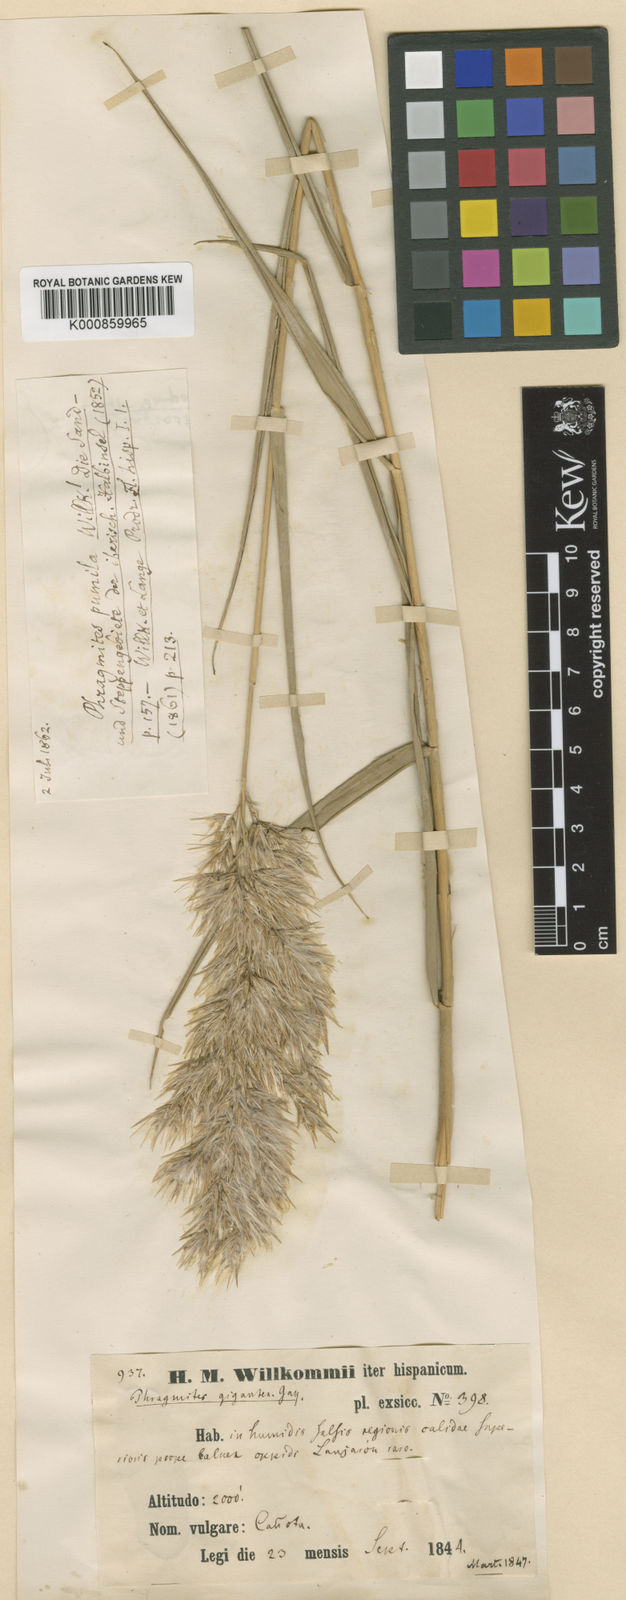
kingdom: Plantae
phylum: Tracheophyta
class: Liliopsida
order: Poales
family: Poaceae
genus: Phragmites
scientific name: Phragmites australis
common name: Common reed
